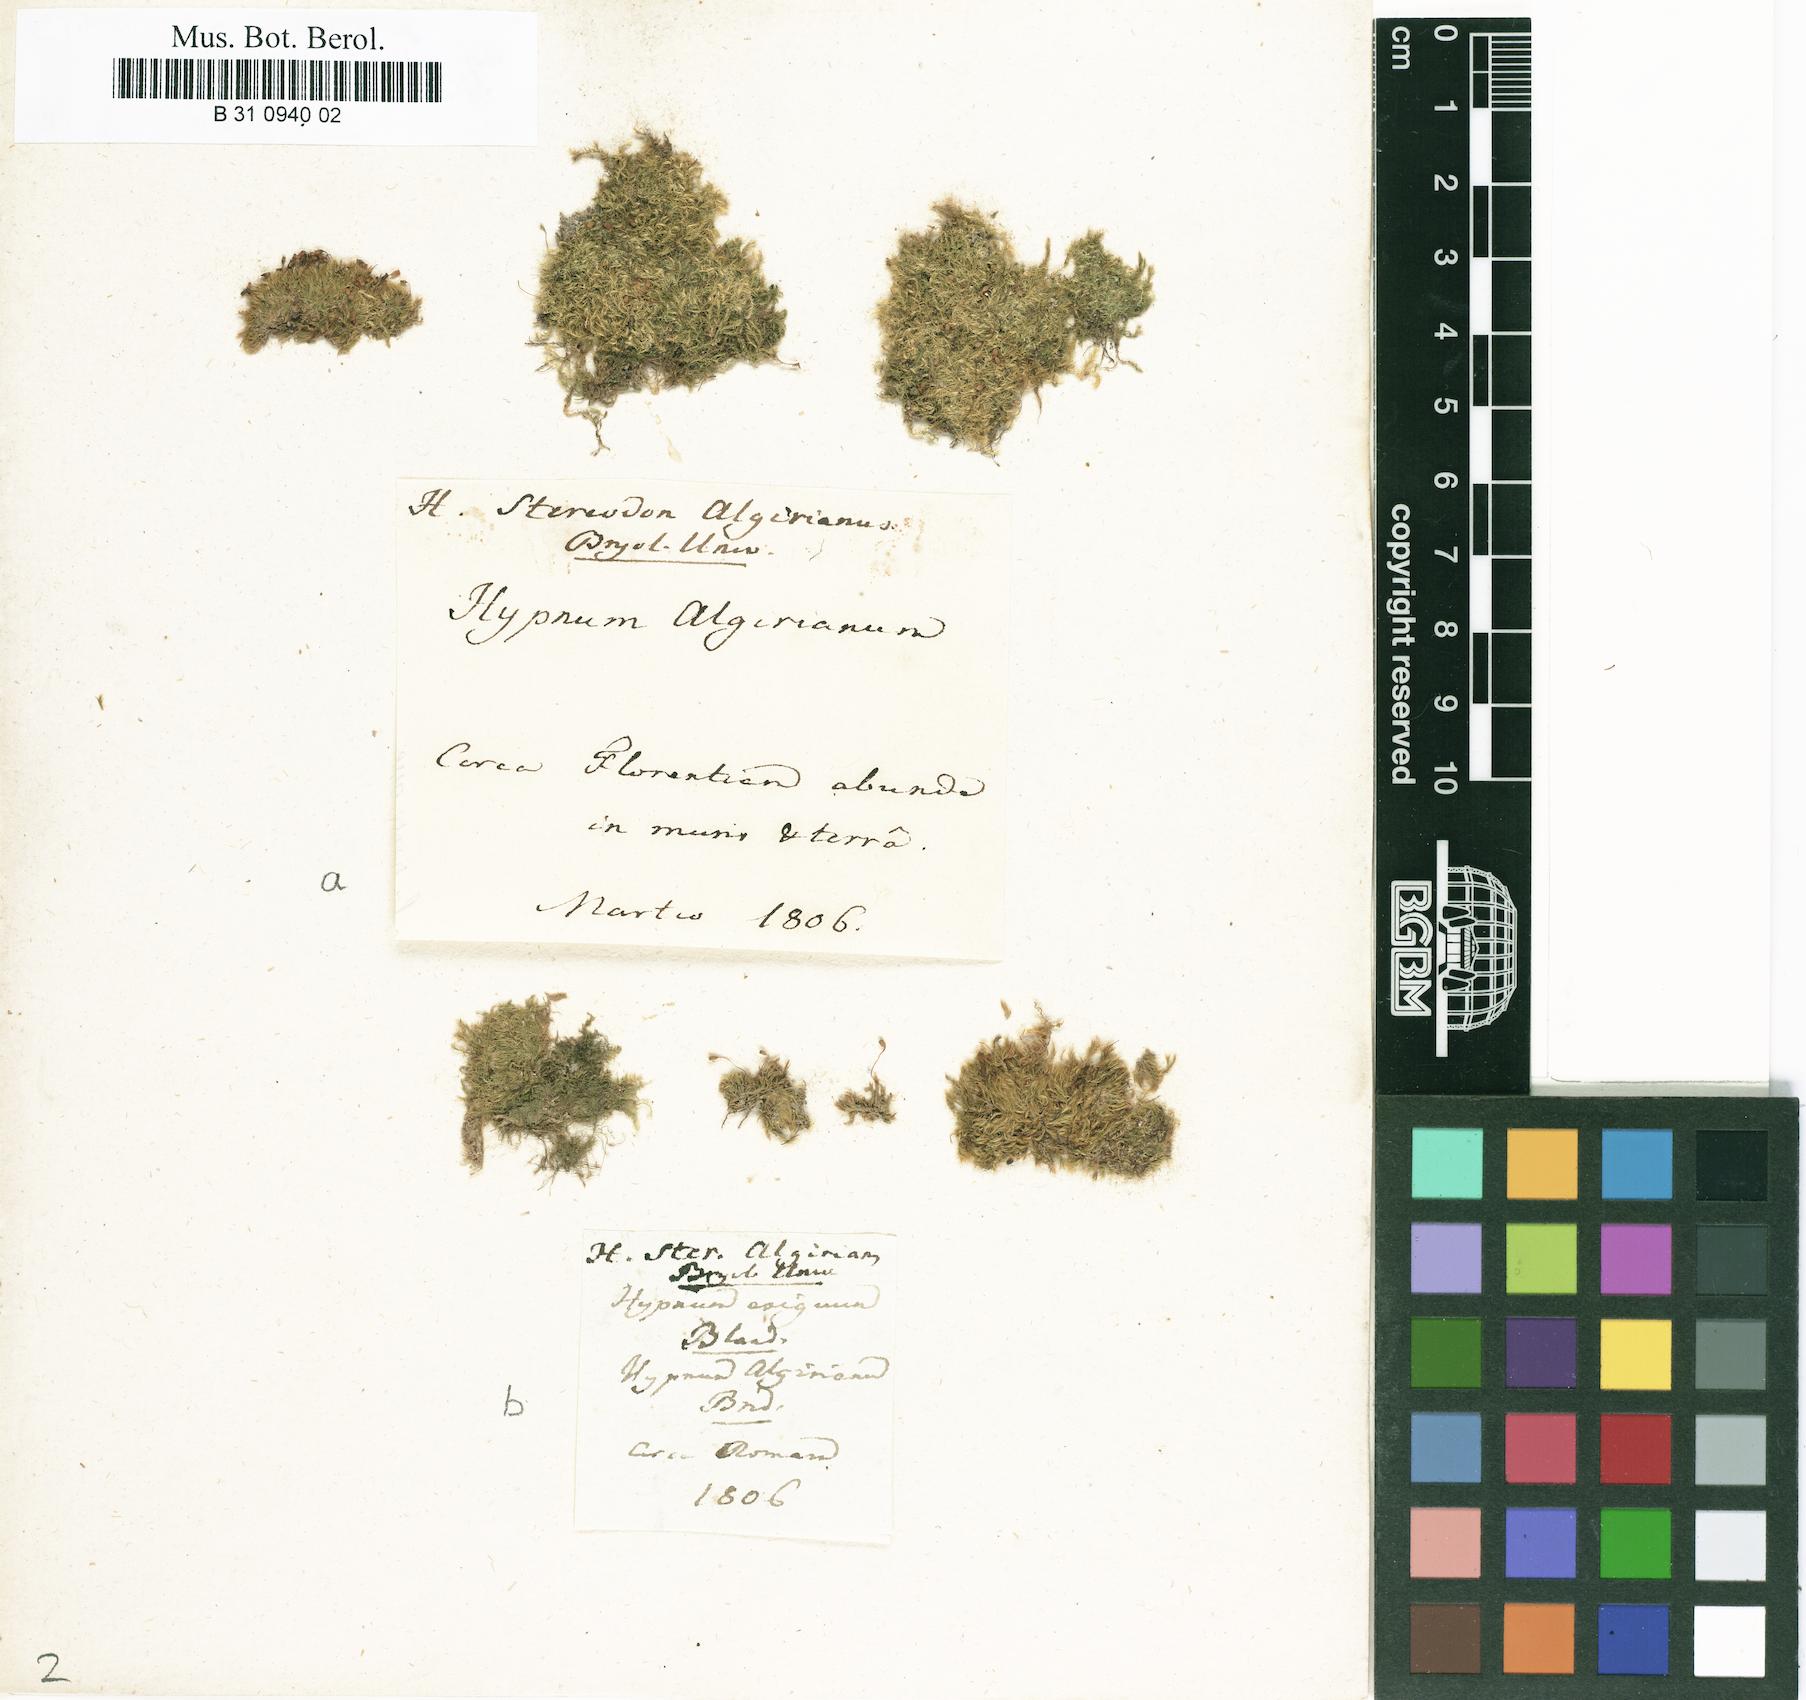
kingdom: Plantae
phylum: Bryophyta
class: Bryopsida
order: Hypnales
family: Brachytheciaceae
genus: Rhynchostegiella
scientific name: Rhynchostegiella curviseta
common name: Curve-stalked feather-moss
